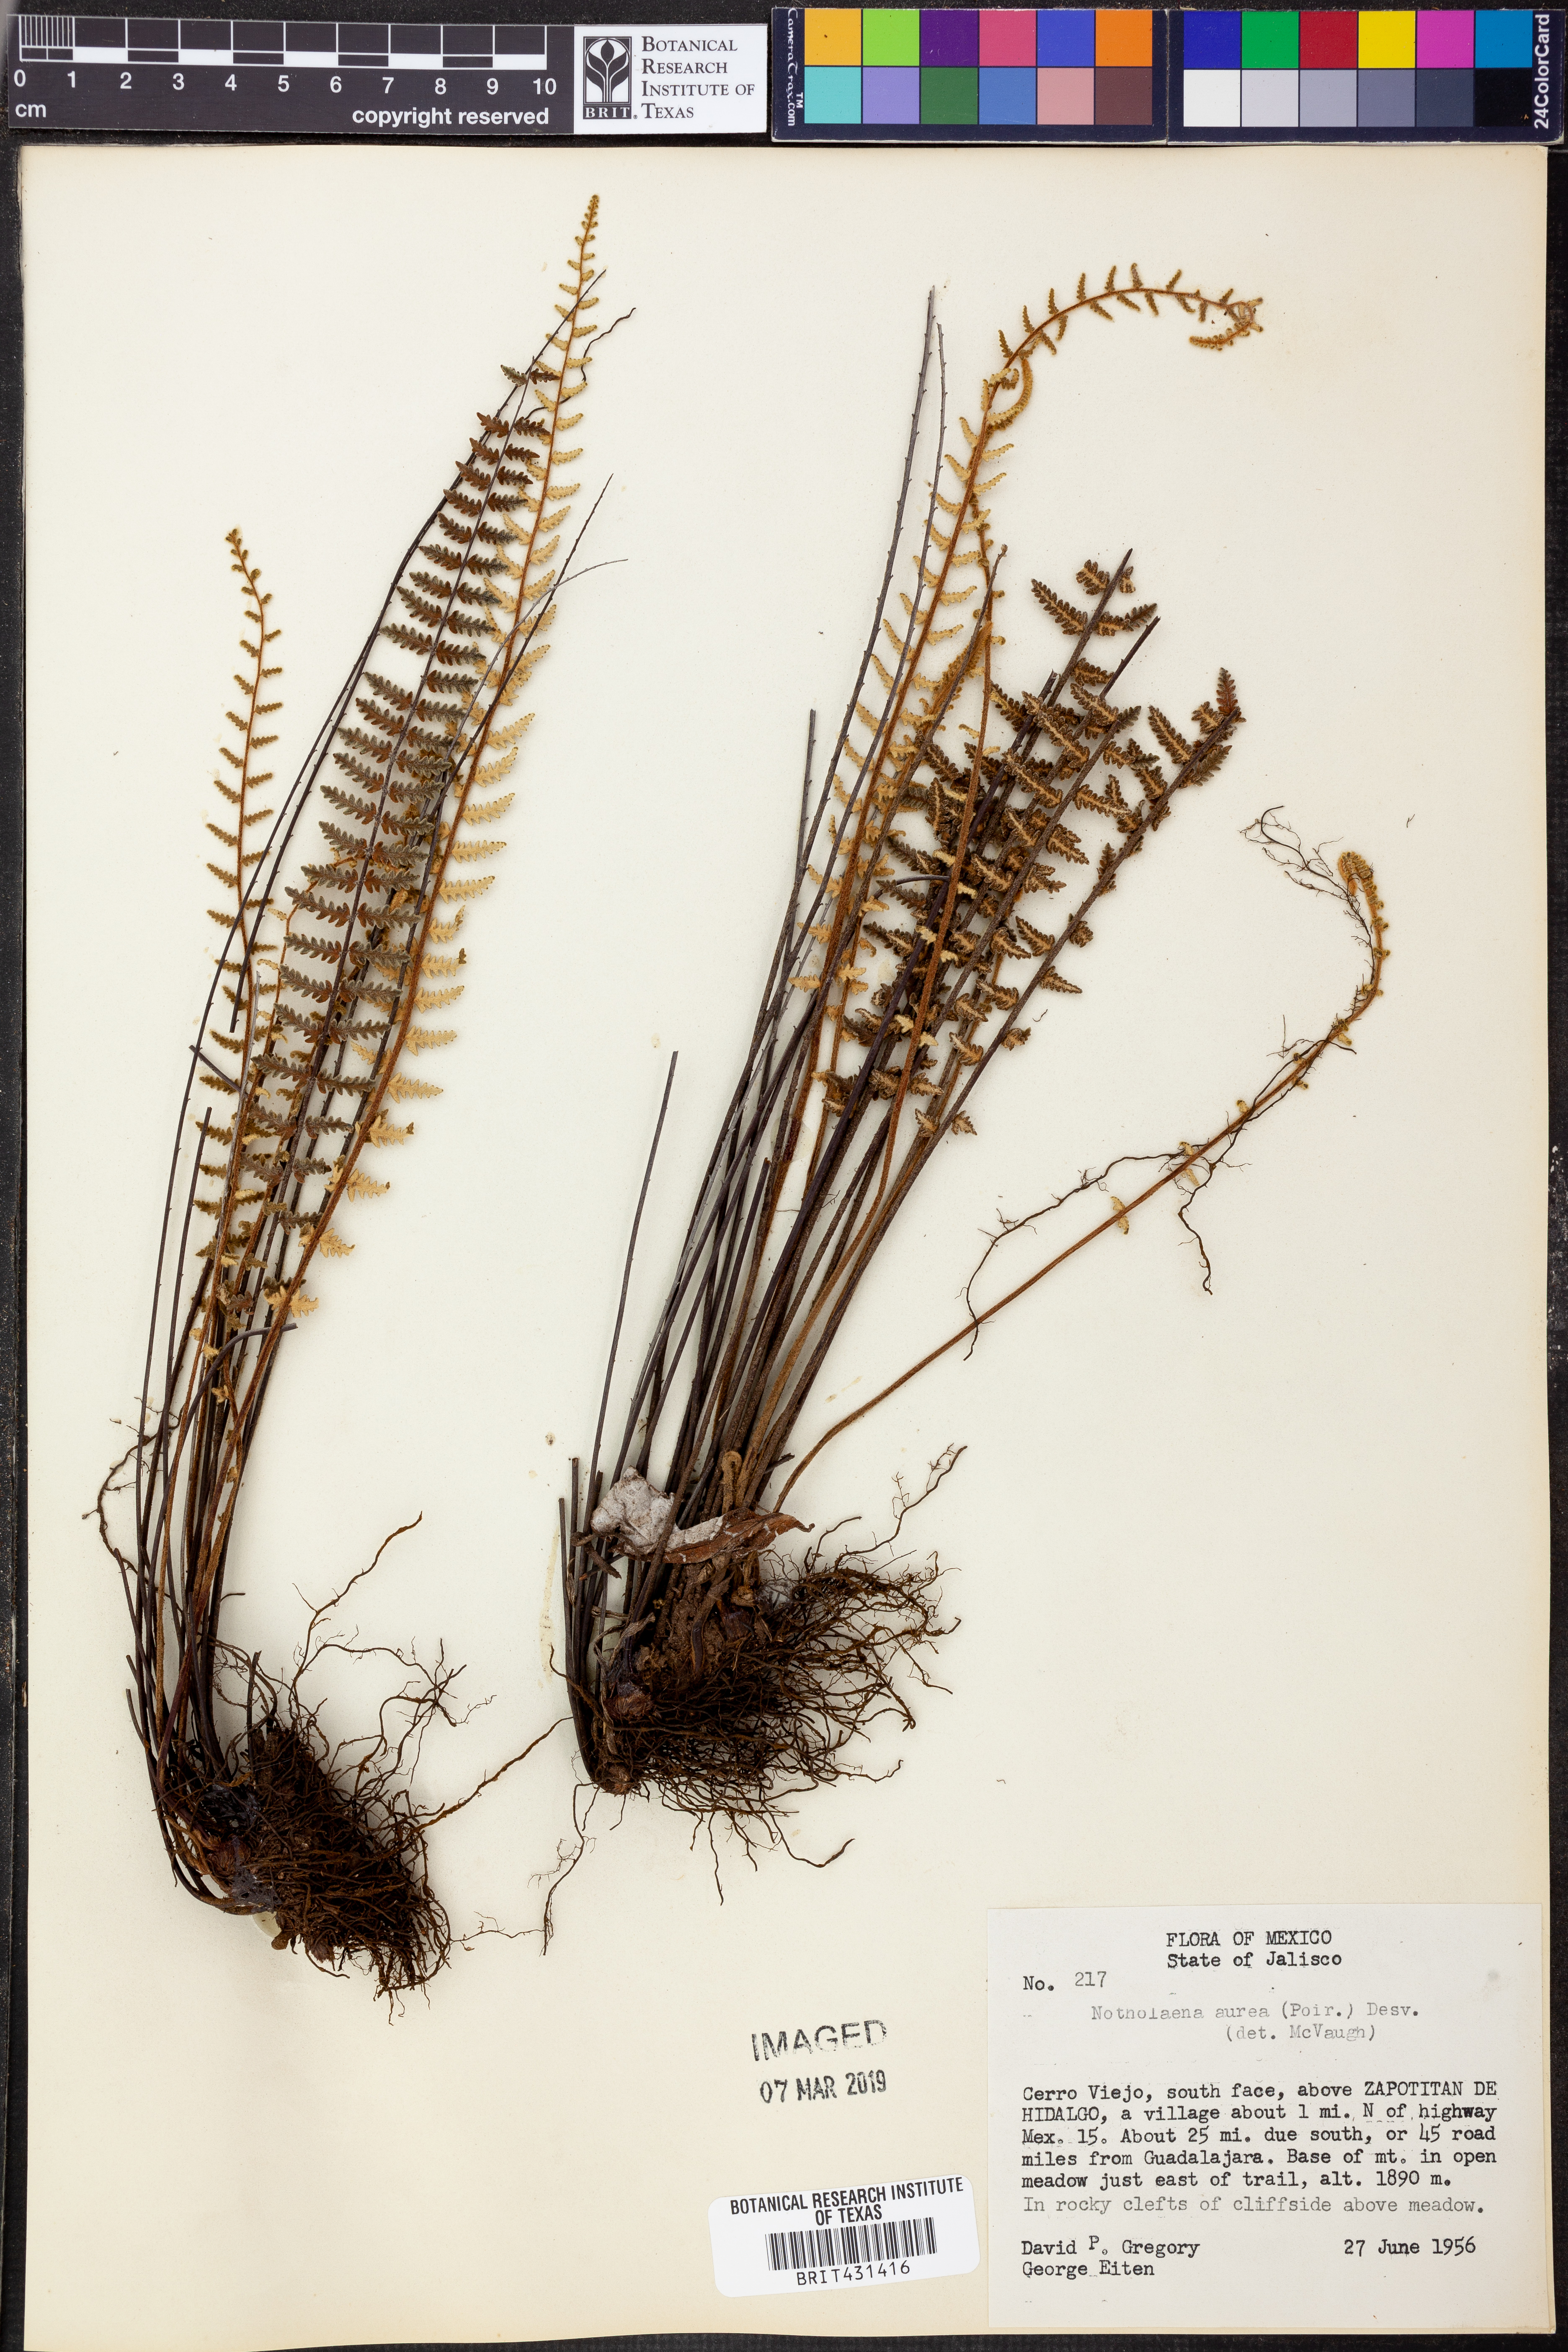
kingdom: Plantae
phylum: Tracheophyta
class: Polypodiopsida
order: Polypodiales
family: Pteridaceae
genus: Myriopteris
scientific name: Myriopteris aurea
